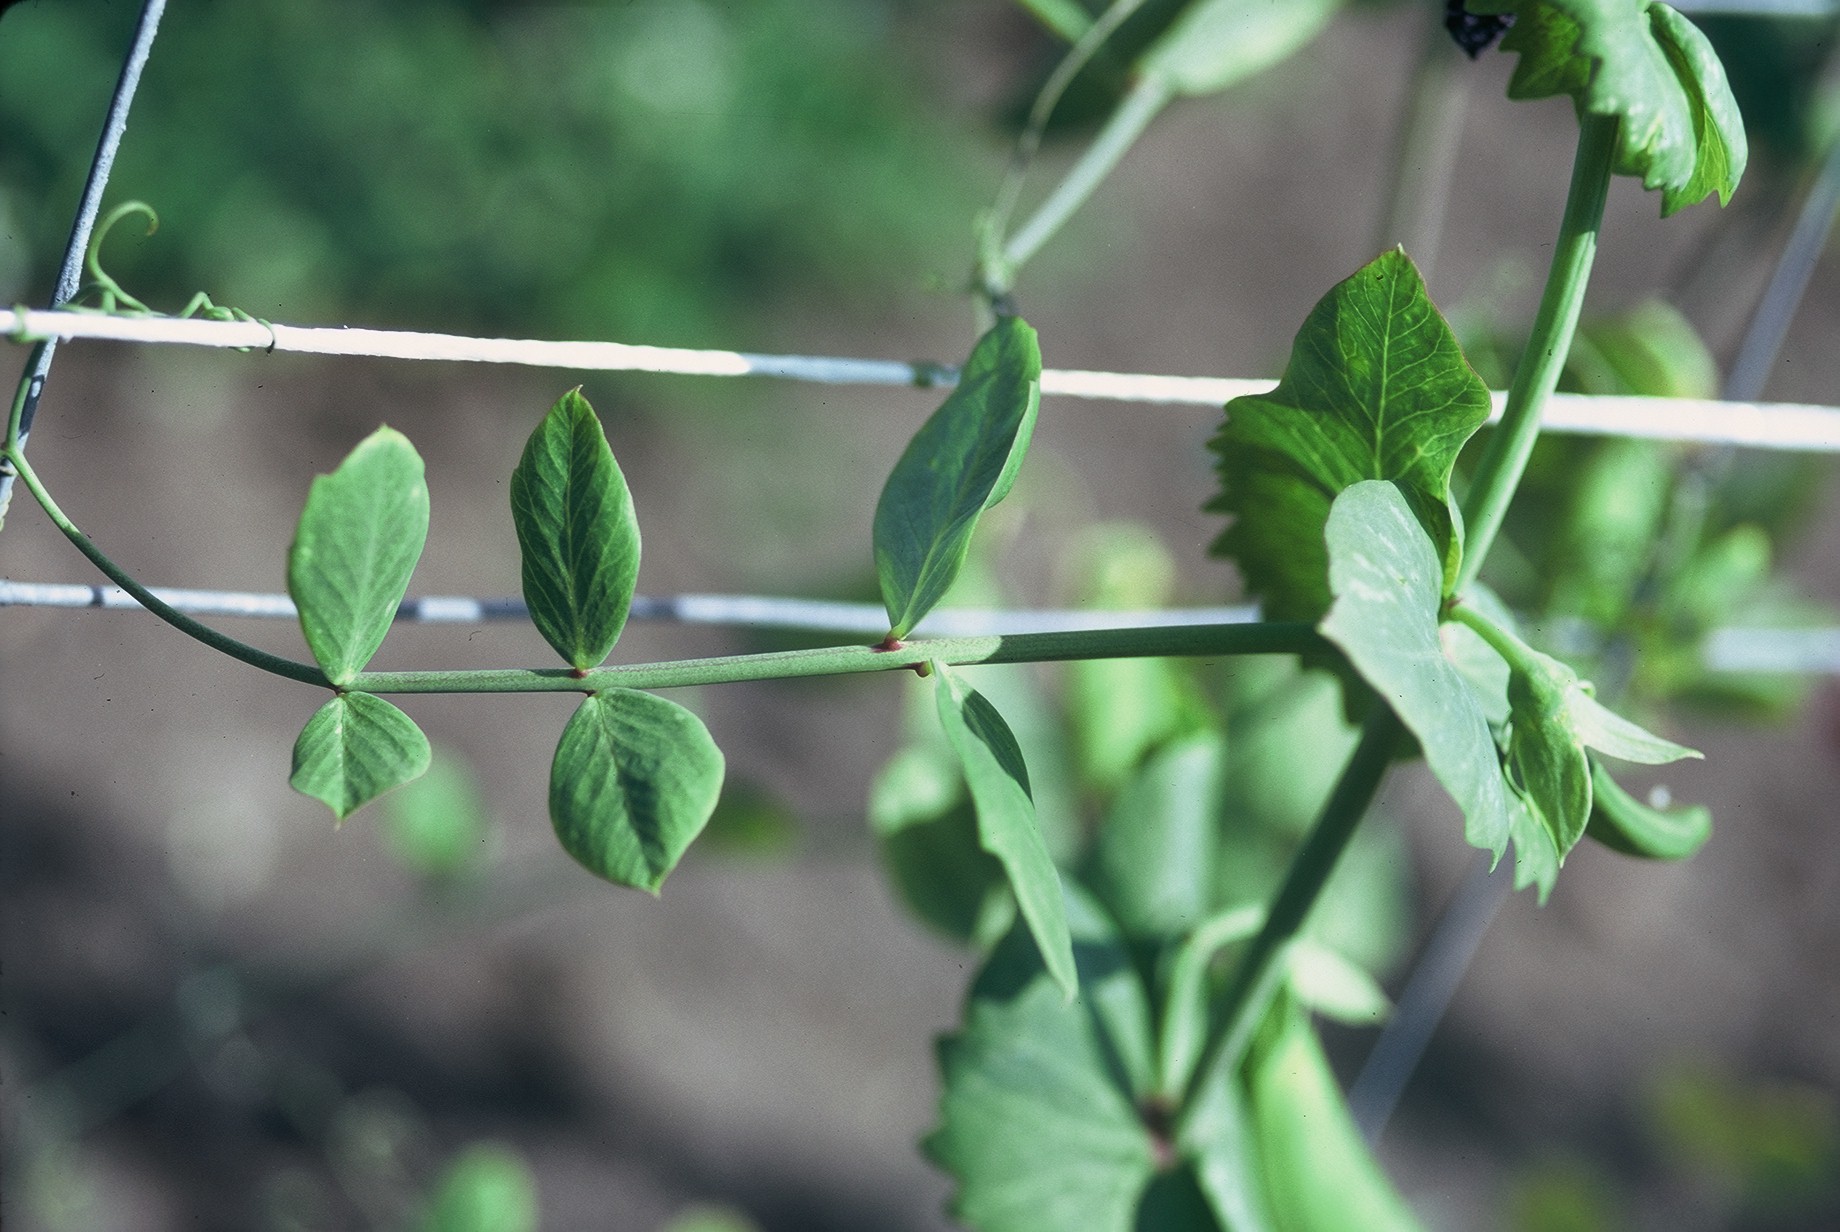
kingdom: Plantae
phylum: Tracheophyta
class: Magnoliopsida
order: Fabales
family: Fabaceae
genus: Lathyrus
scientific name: Lathyrus oleraceus
